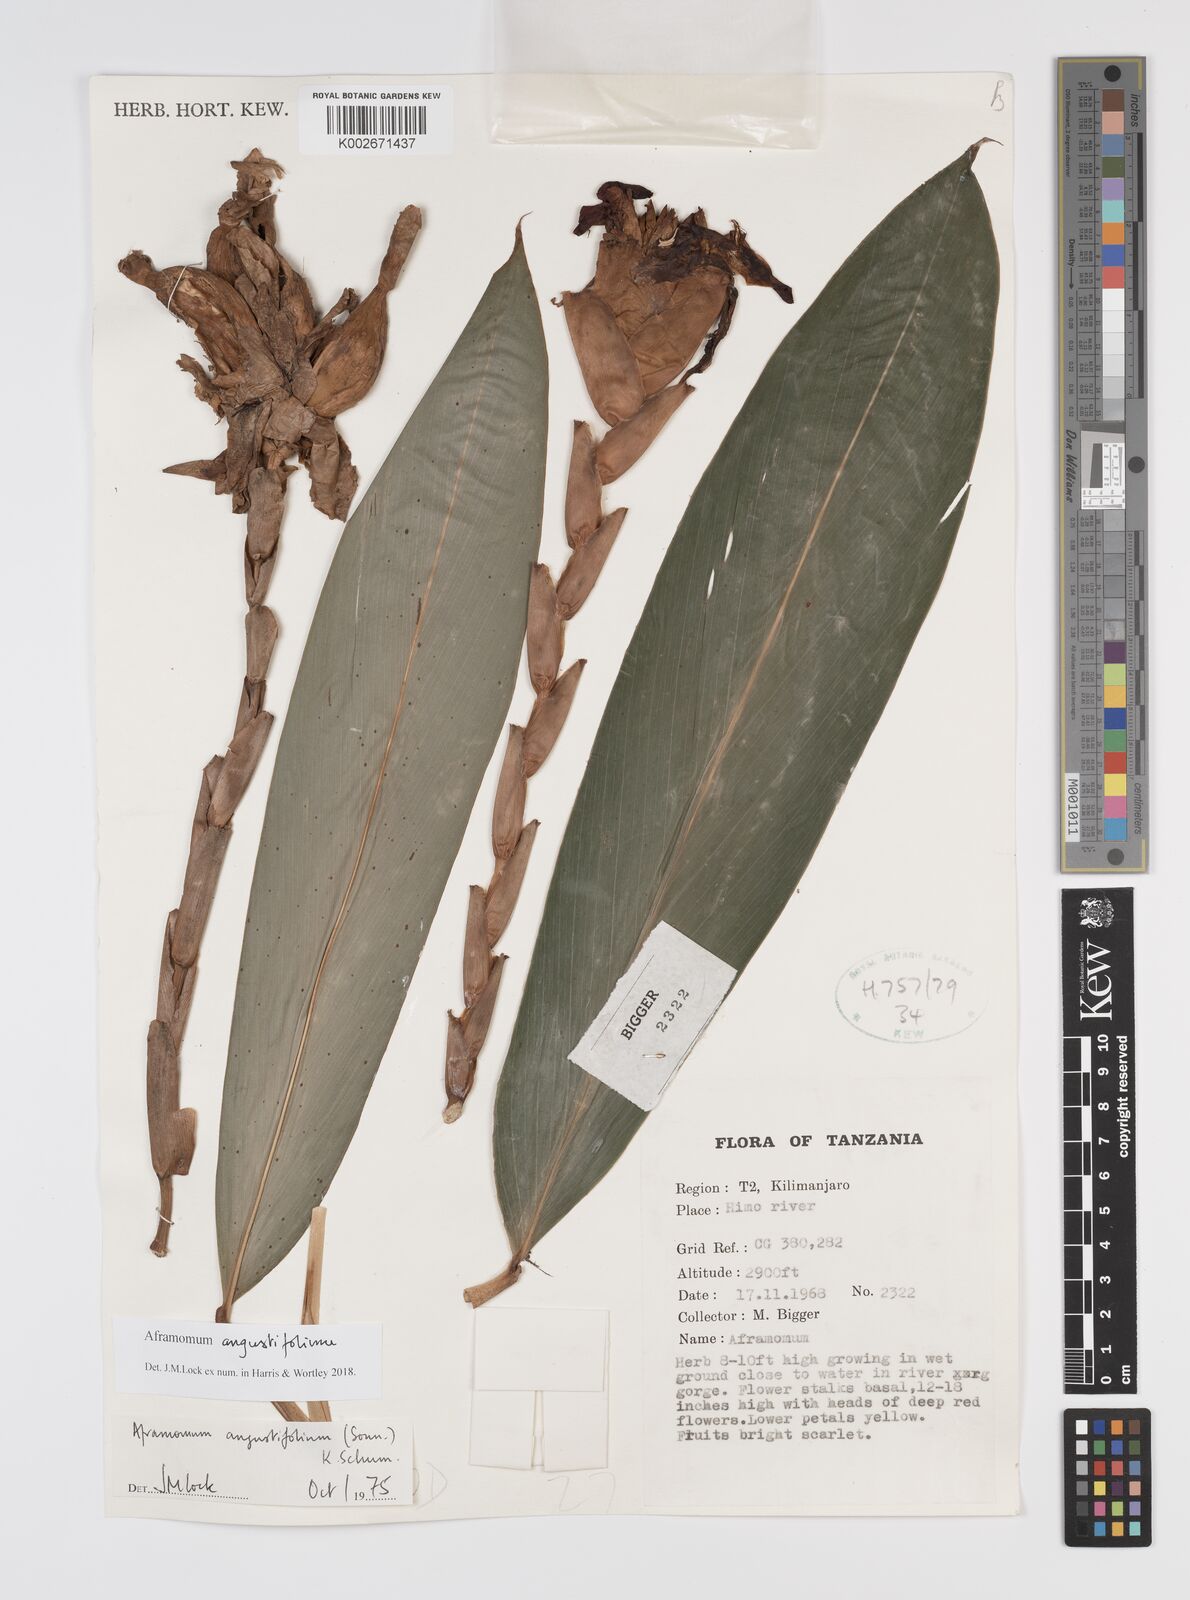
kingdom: Plantae
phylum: Tracheophyta
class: Liliopsida
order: Zingiberales
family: Zingiberaceae
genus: Aframomum
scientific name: Aframomum angustifolium
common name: Guinea grains
